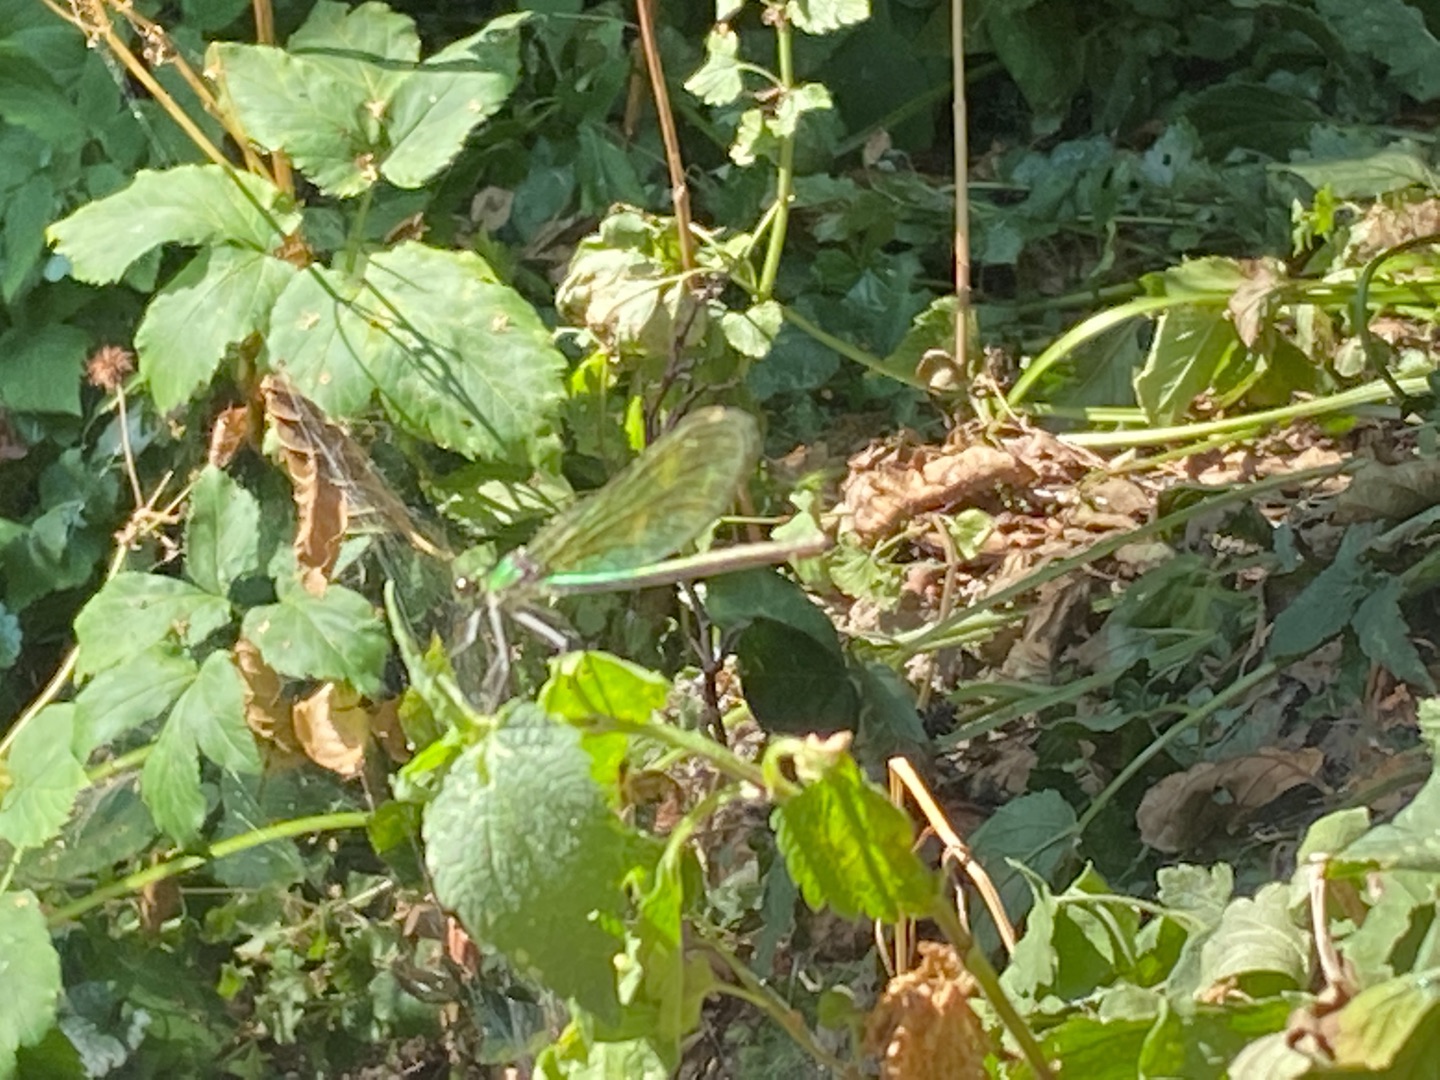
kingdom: Animalia
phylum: Arthropoda
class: Insecta
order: Odonata
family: Calopterygidae
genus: Calopteryx
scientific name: Calopteryx splendens
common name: Blåbåndet pragtvandnymfe
